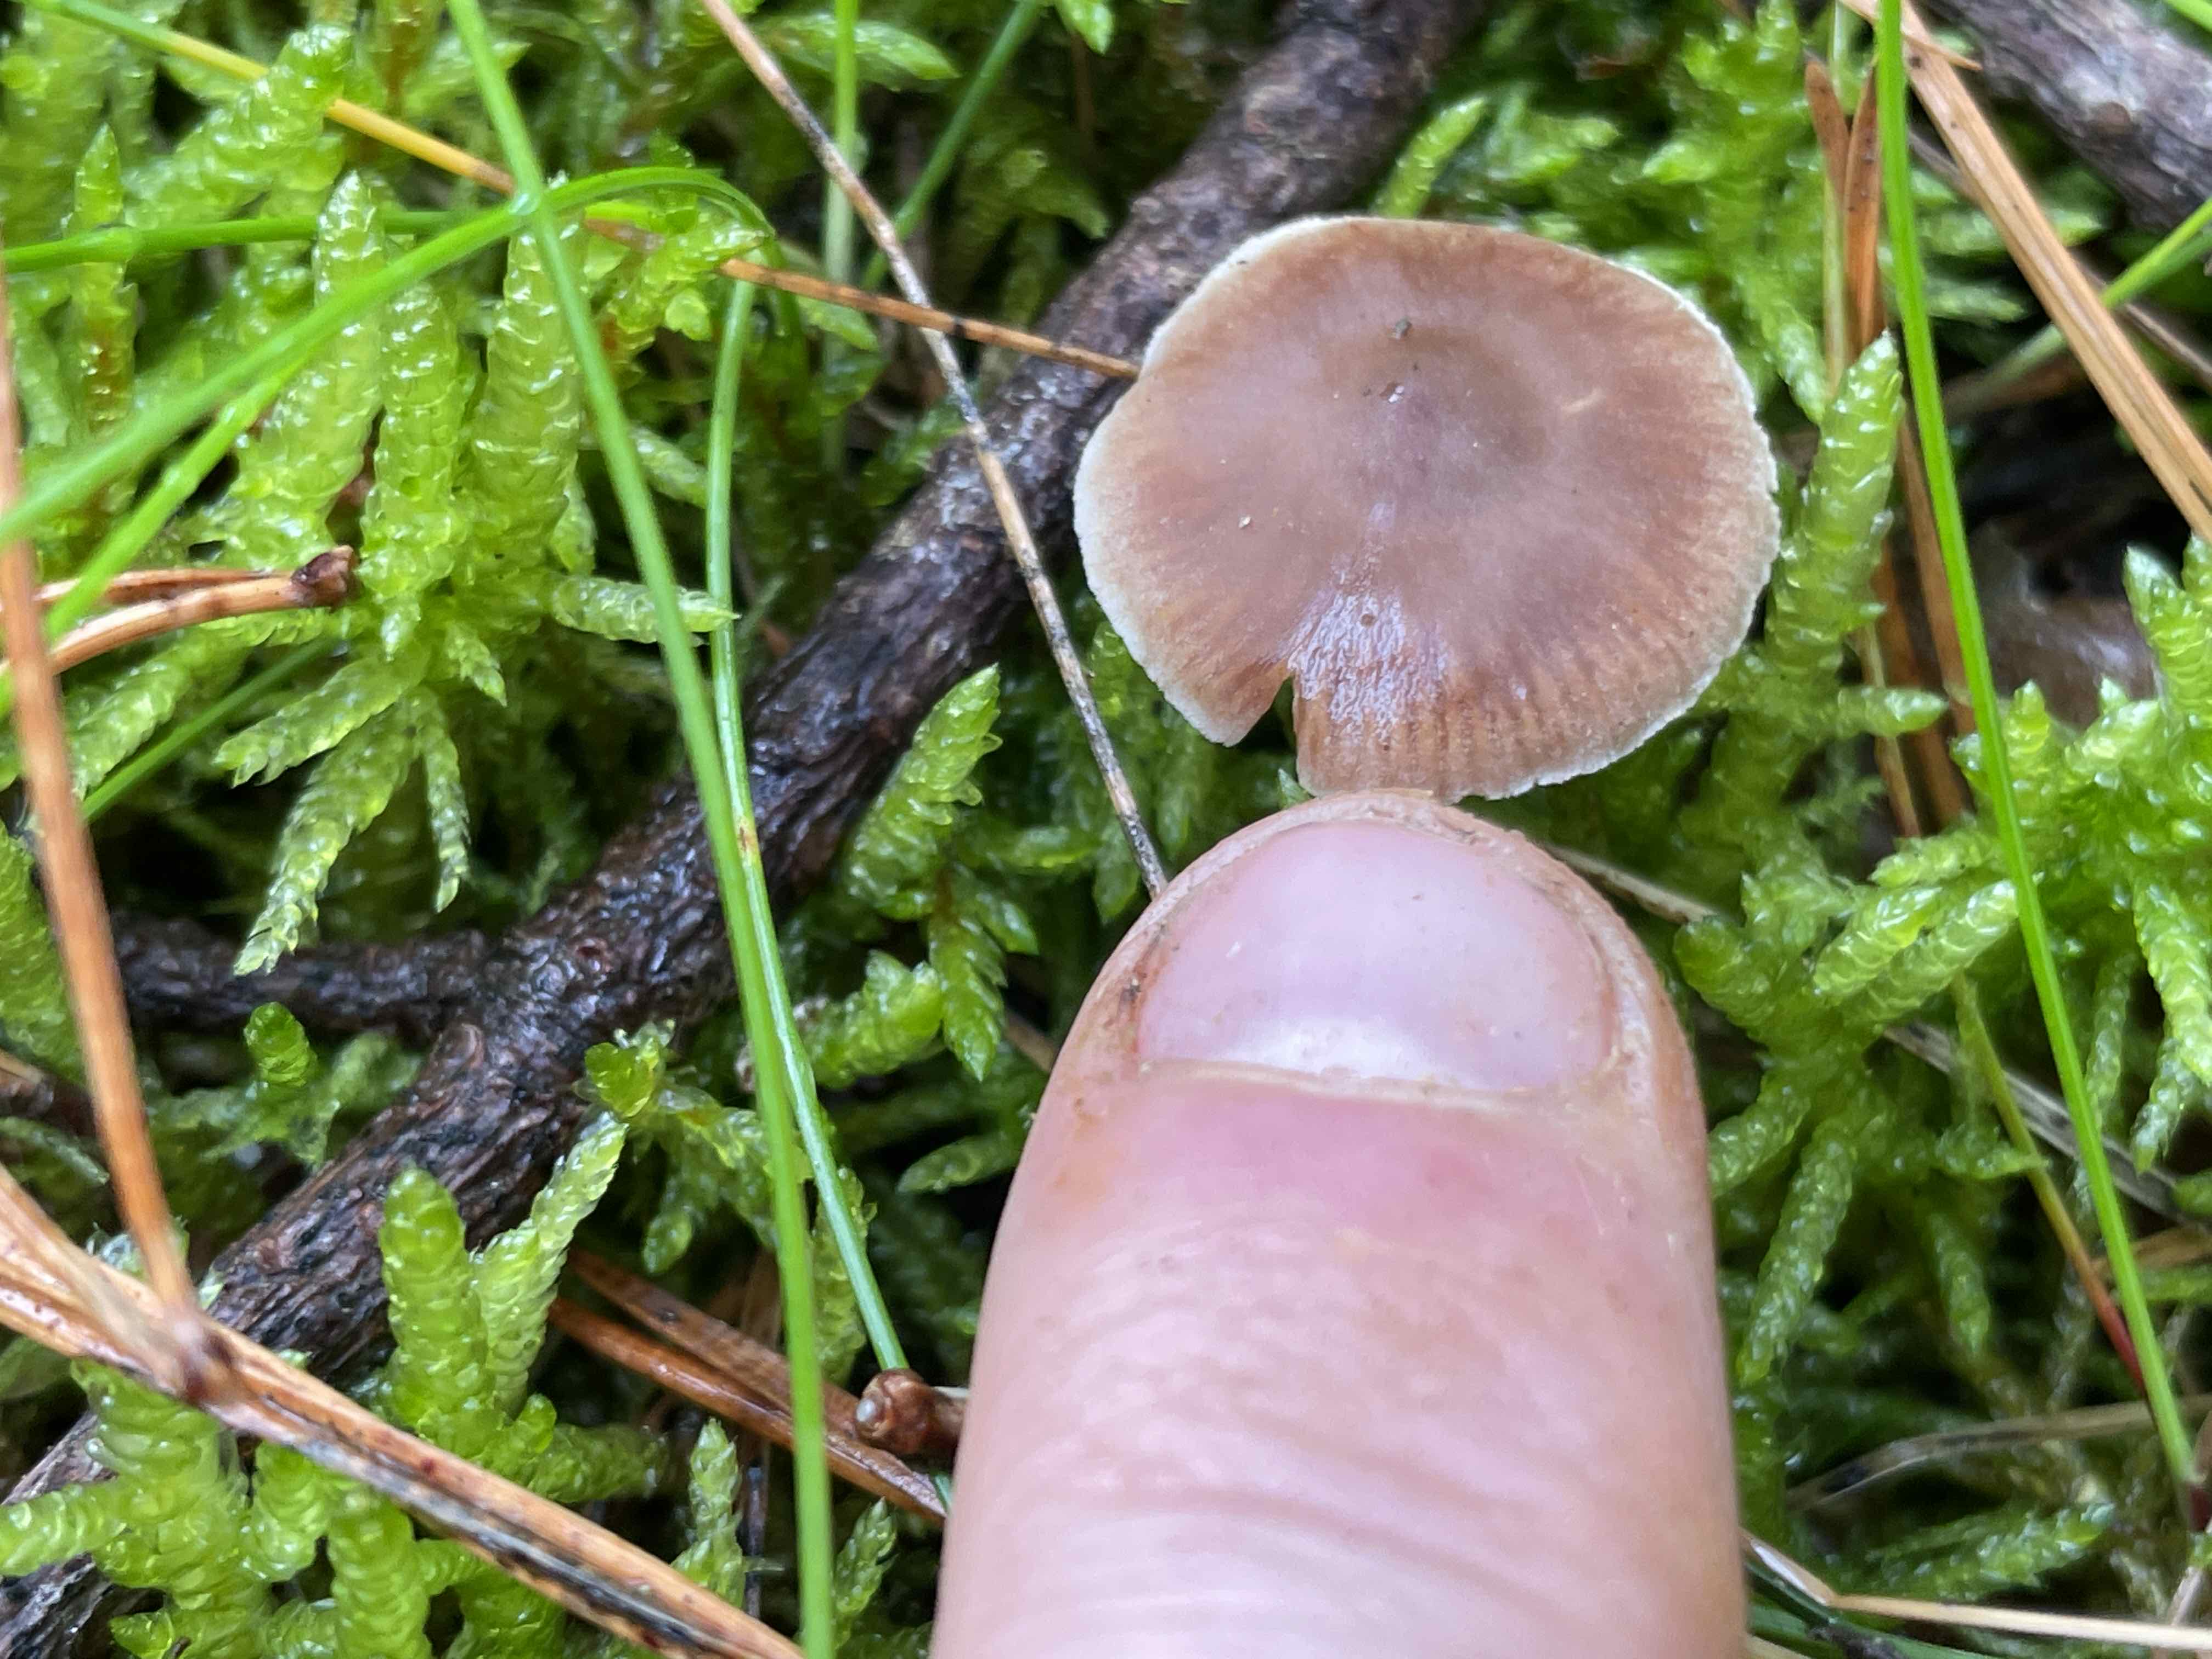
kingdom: Fungi
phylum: Basidiomycota
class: Agaricomycetes
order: Agaricales
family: Cortinariaceae
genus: Cortinarius
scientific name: Cortinarius
